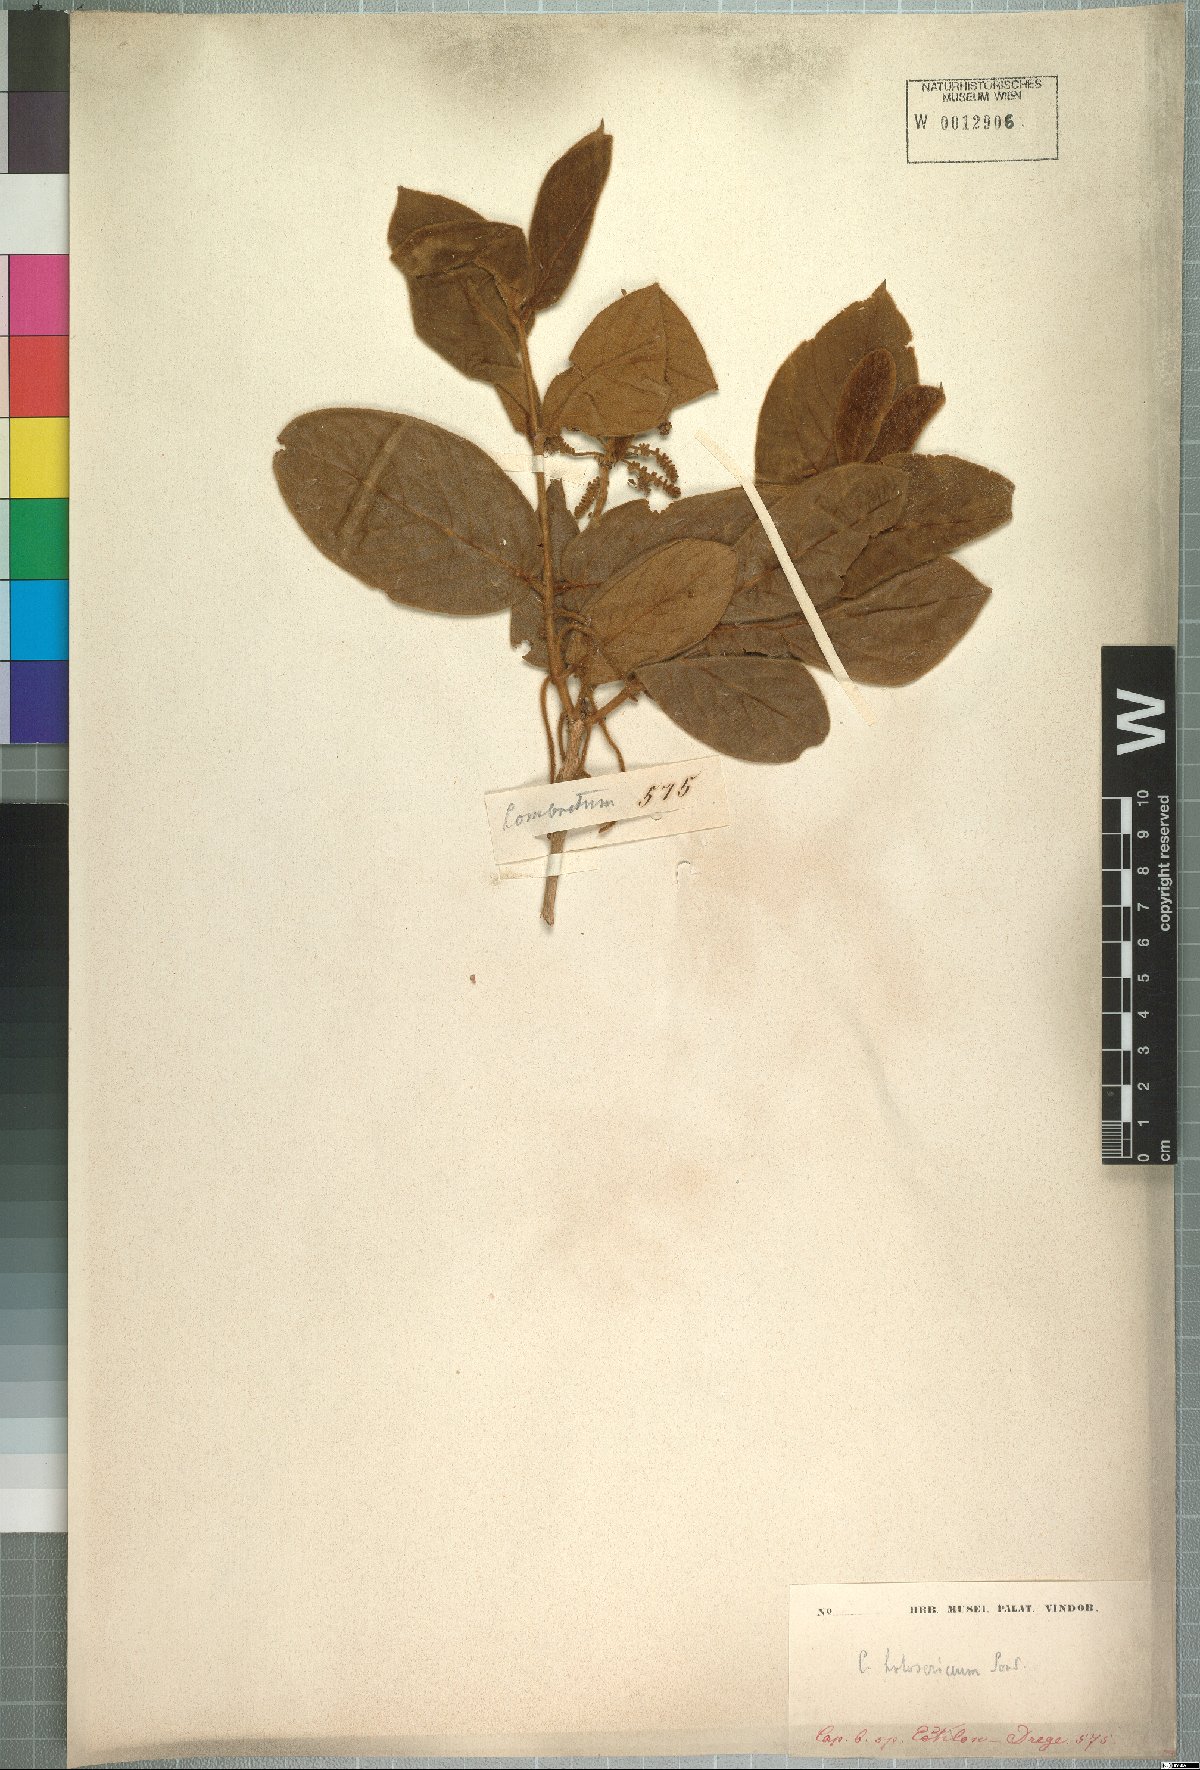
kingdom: Plantae
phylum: Tracheophyta
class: Magnoliopsida
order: Myrtales
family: Combretaceae
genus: Combretum
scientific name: Combretum molle
